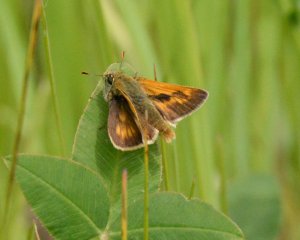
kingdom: Animalia
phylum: Arthropoda
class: Insecta
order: Lepidoptera
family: Hesperiidae
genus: Polites
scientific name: Polites
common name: Long Dash Skipper
